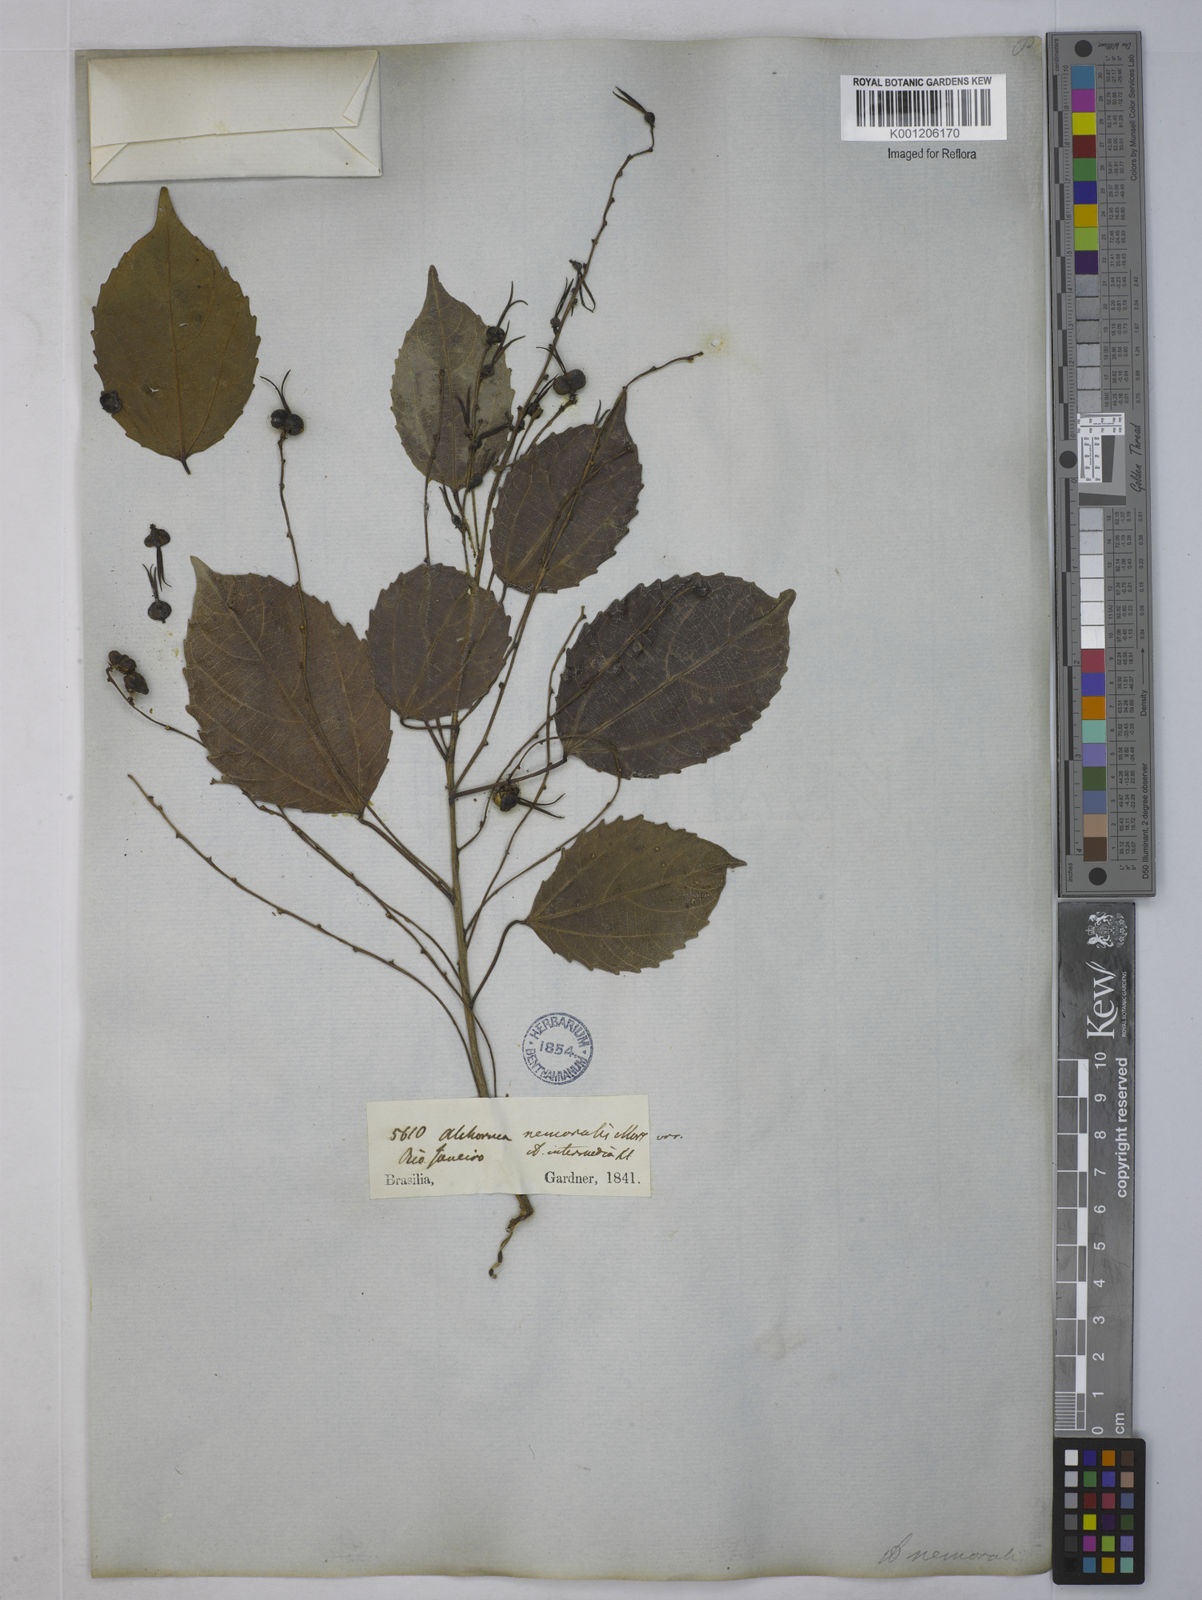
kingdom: Plantae
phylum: Tracheophyta
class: Magnoliopsida
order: Malpighiales
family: Euphorbiaceae
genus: Alchornea
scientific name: Alchornea triplinervia
